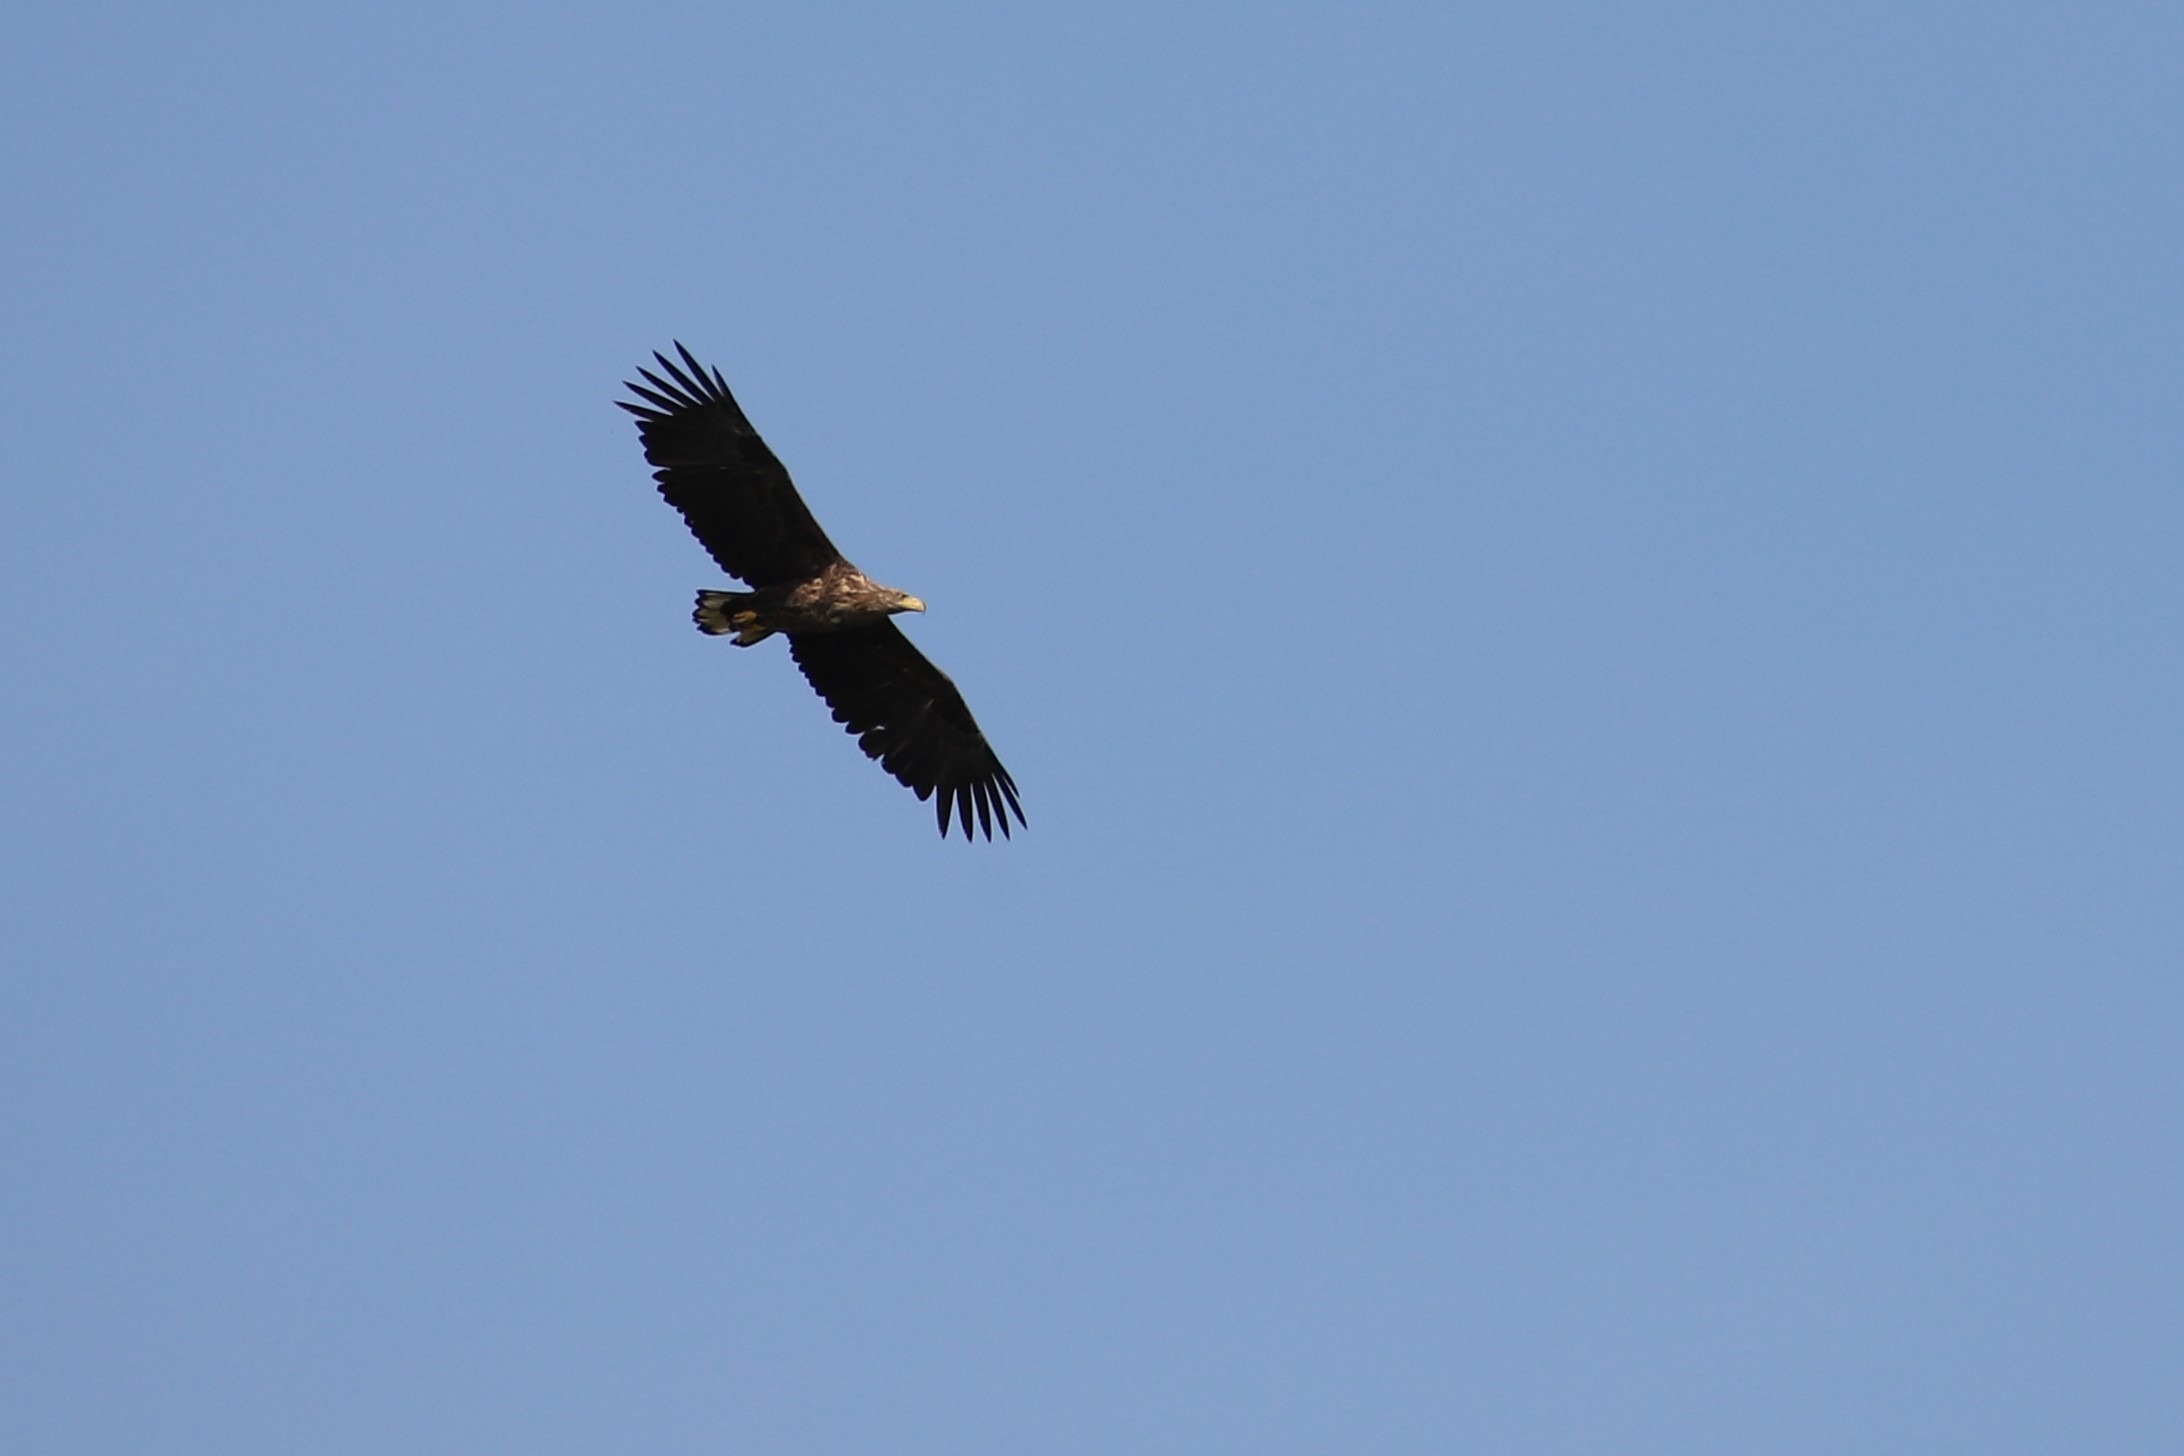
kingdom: Animalia
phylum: Chordata
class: Aves
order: Accipitriformes
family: Accipitridae
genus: Haliaeetus
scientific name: Haliaeetus albicilla
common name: Havørn
